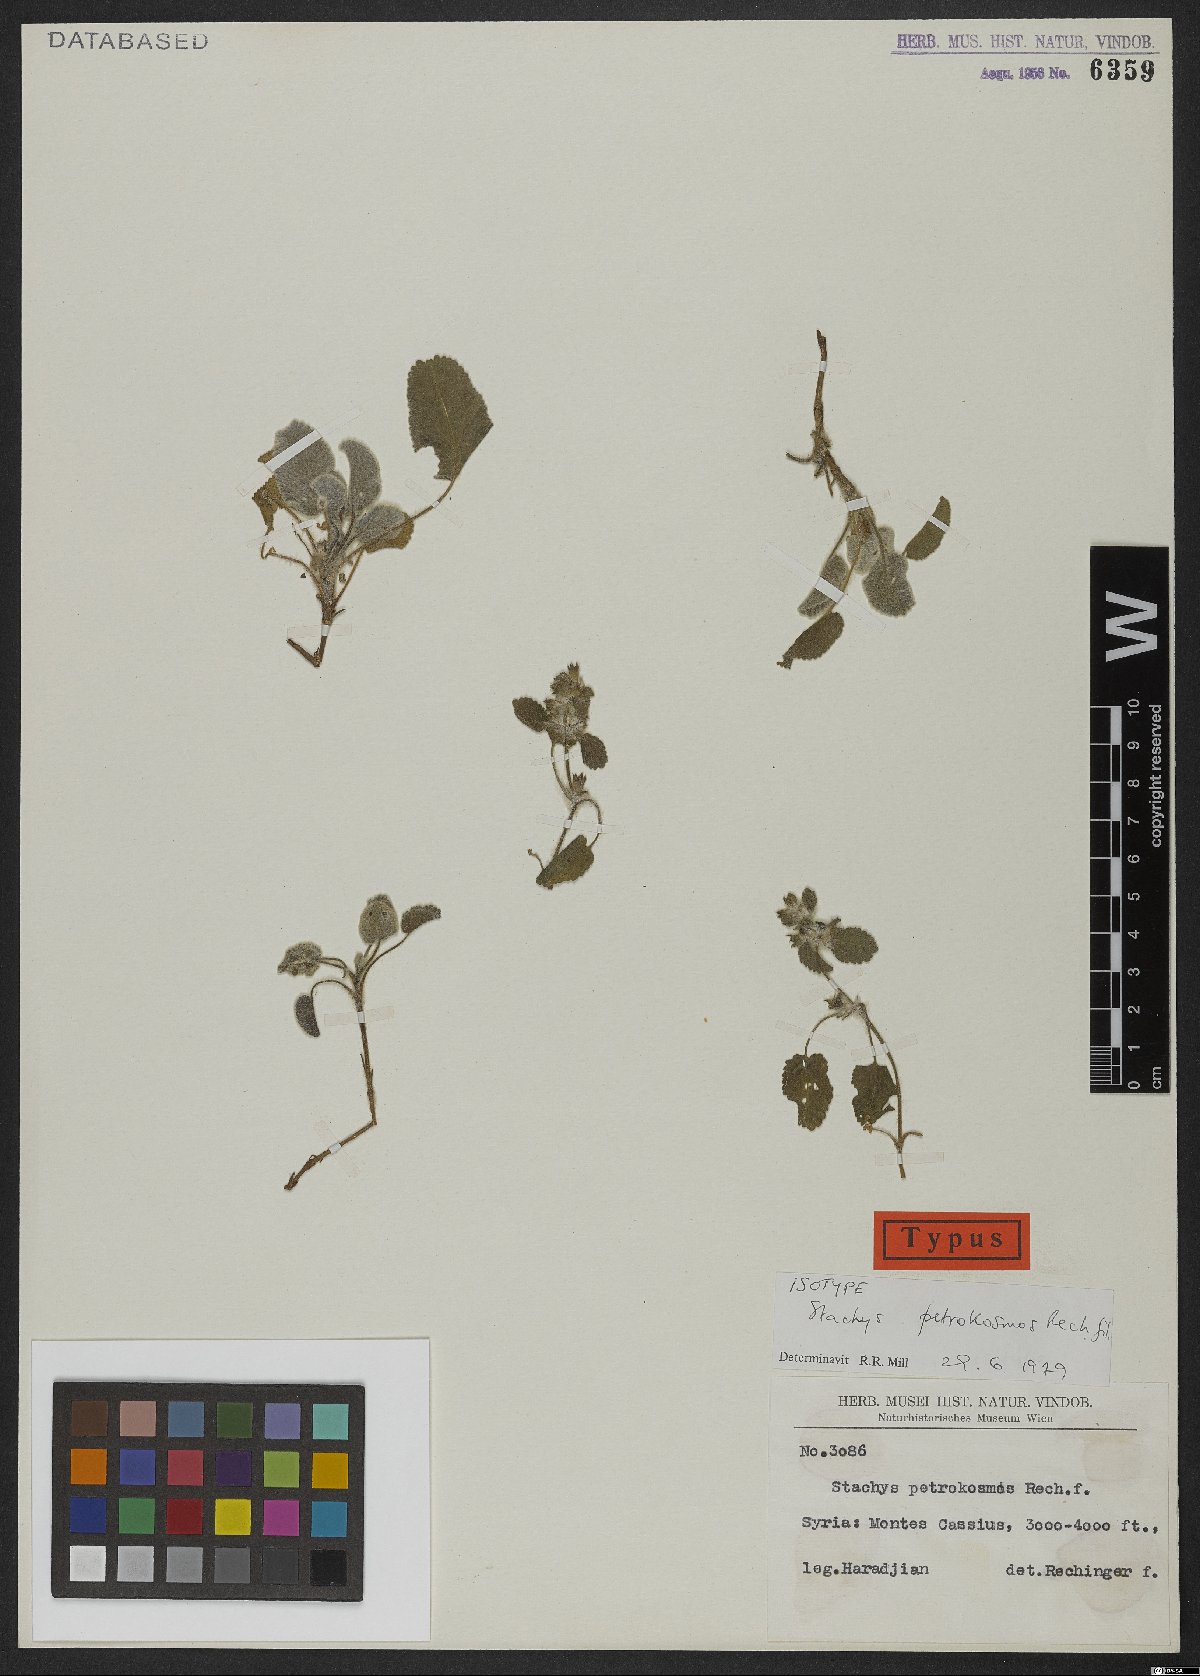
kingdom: Plantae
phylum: Tracheophyta
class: Magnoliopsida
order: Lamiales
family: Lamiaceae
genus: Stachys
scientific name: Stachys petrokosmos
